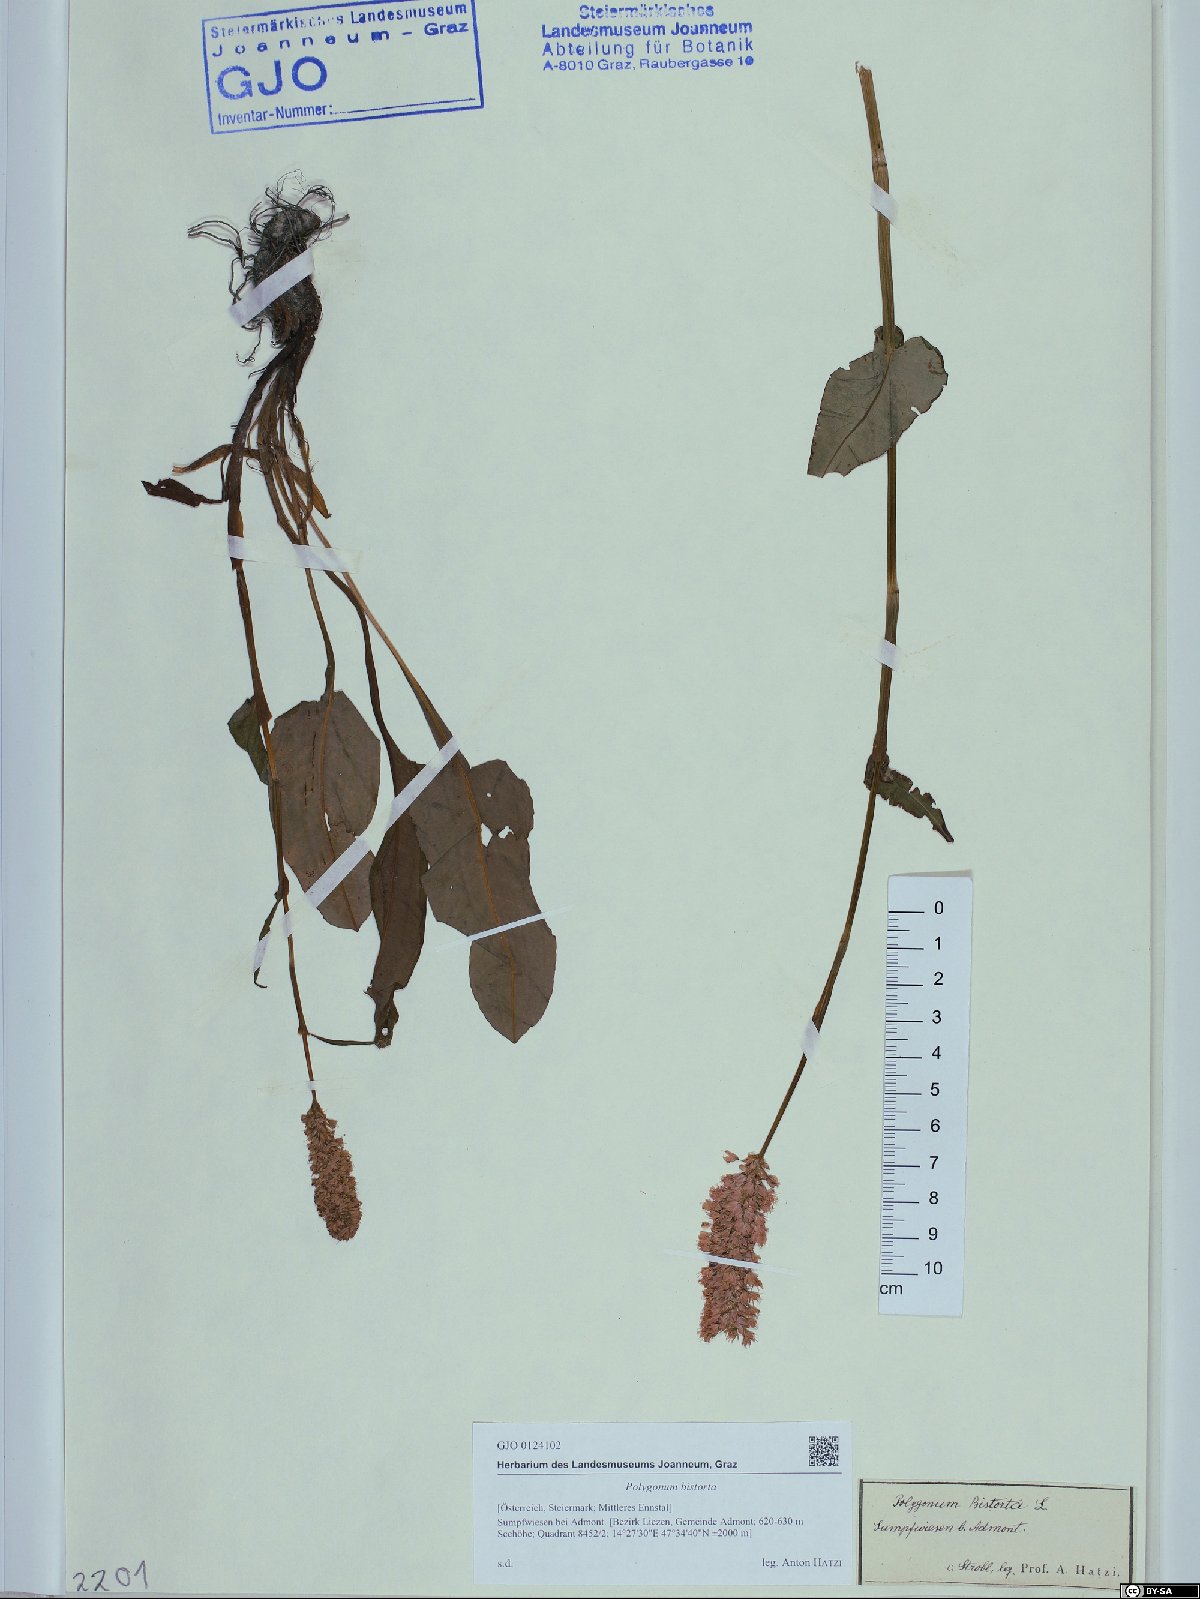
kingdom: Plantae
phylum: Tracheophyta
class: Magnoliopsida
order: Caryophyllales
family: Polygonaceae
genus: Bistorta
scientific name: Bistorta officinalis
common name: Common bistort
